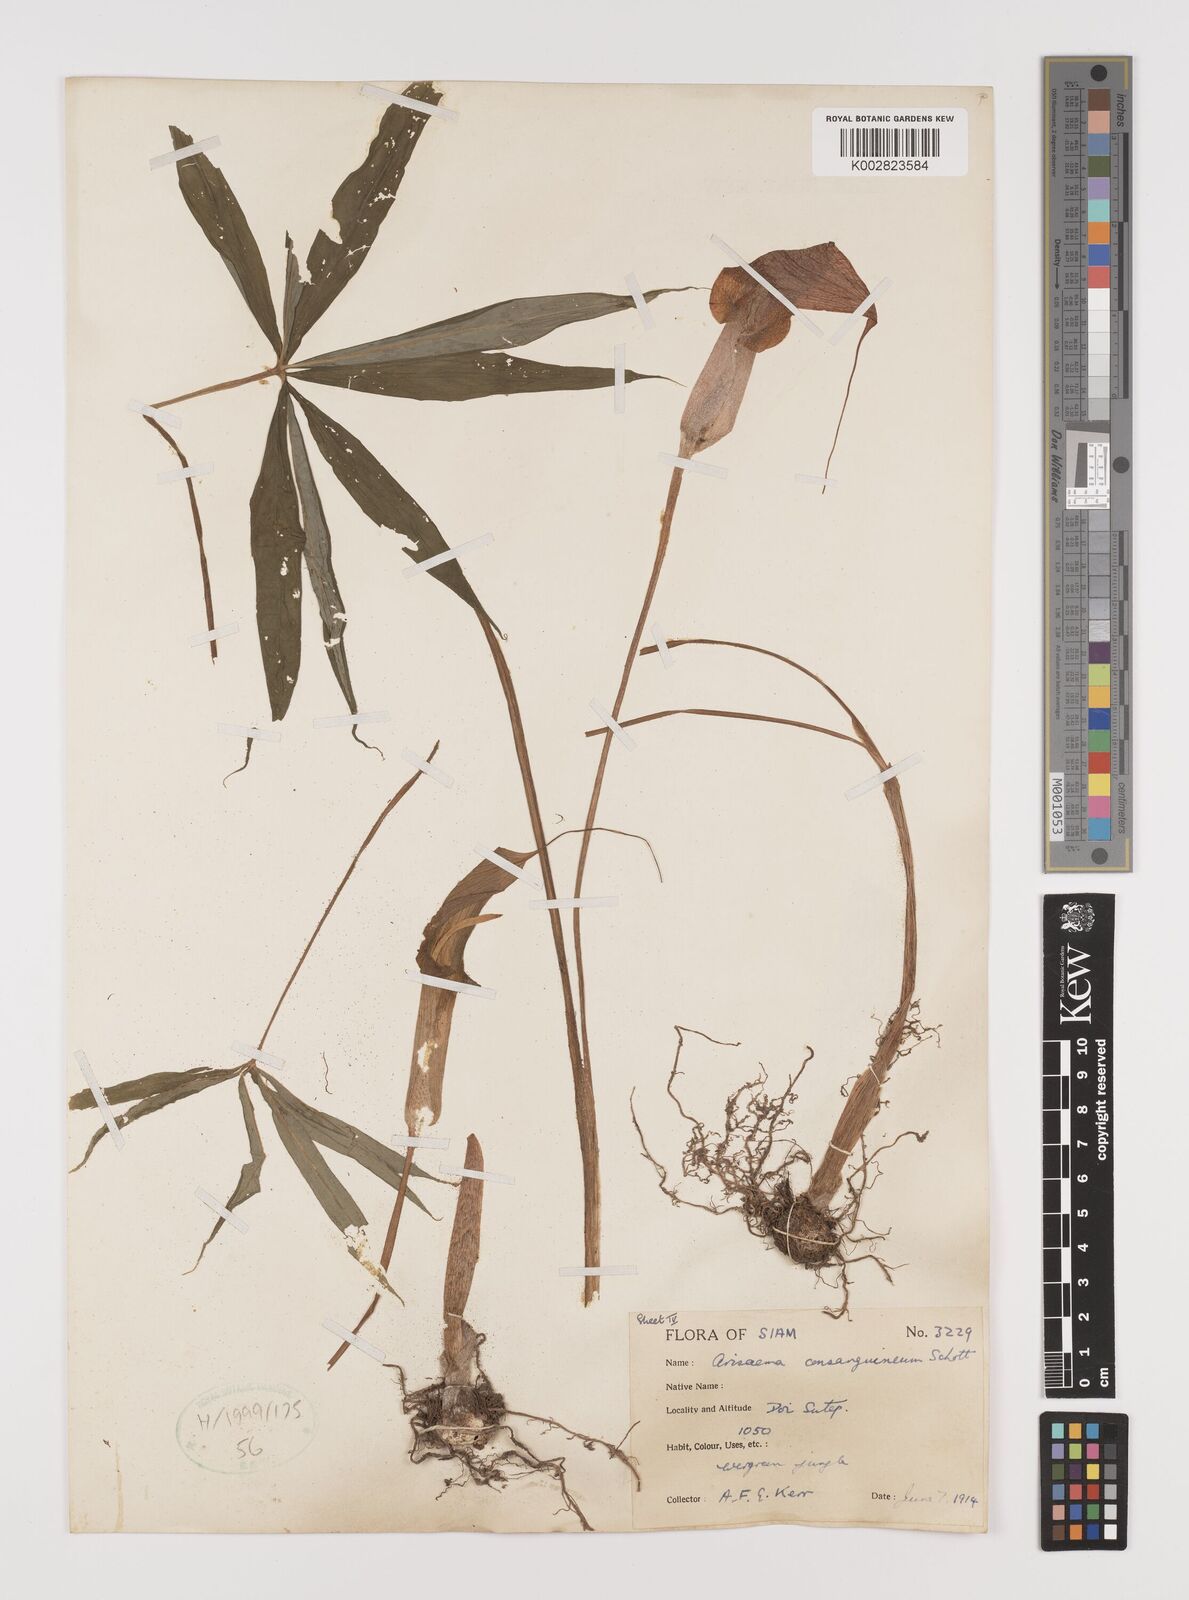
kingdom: Plantae
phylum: Tracheophyta
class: Liliopsida
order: Alismatales
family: Araceae
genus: Arisaema
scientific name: Arisaema consanguineum
